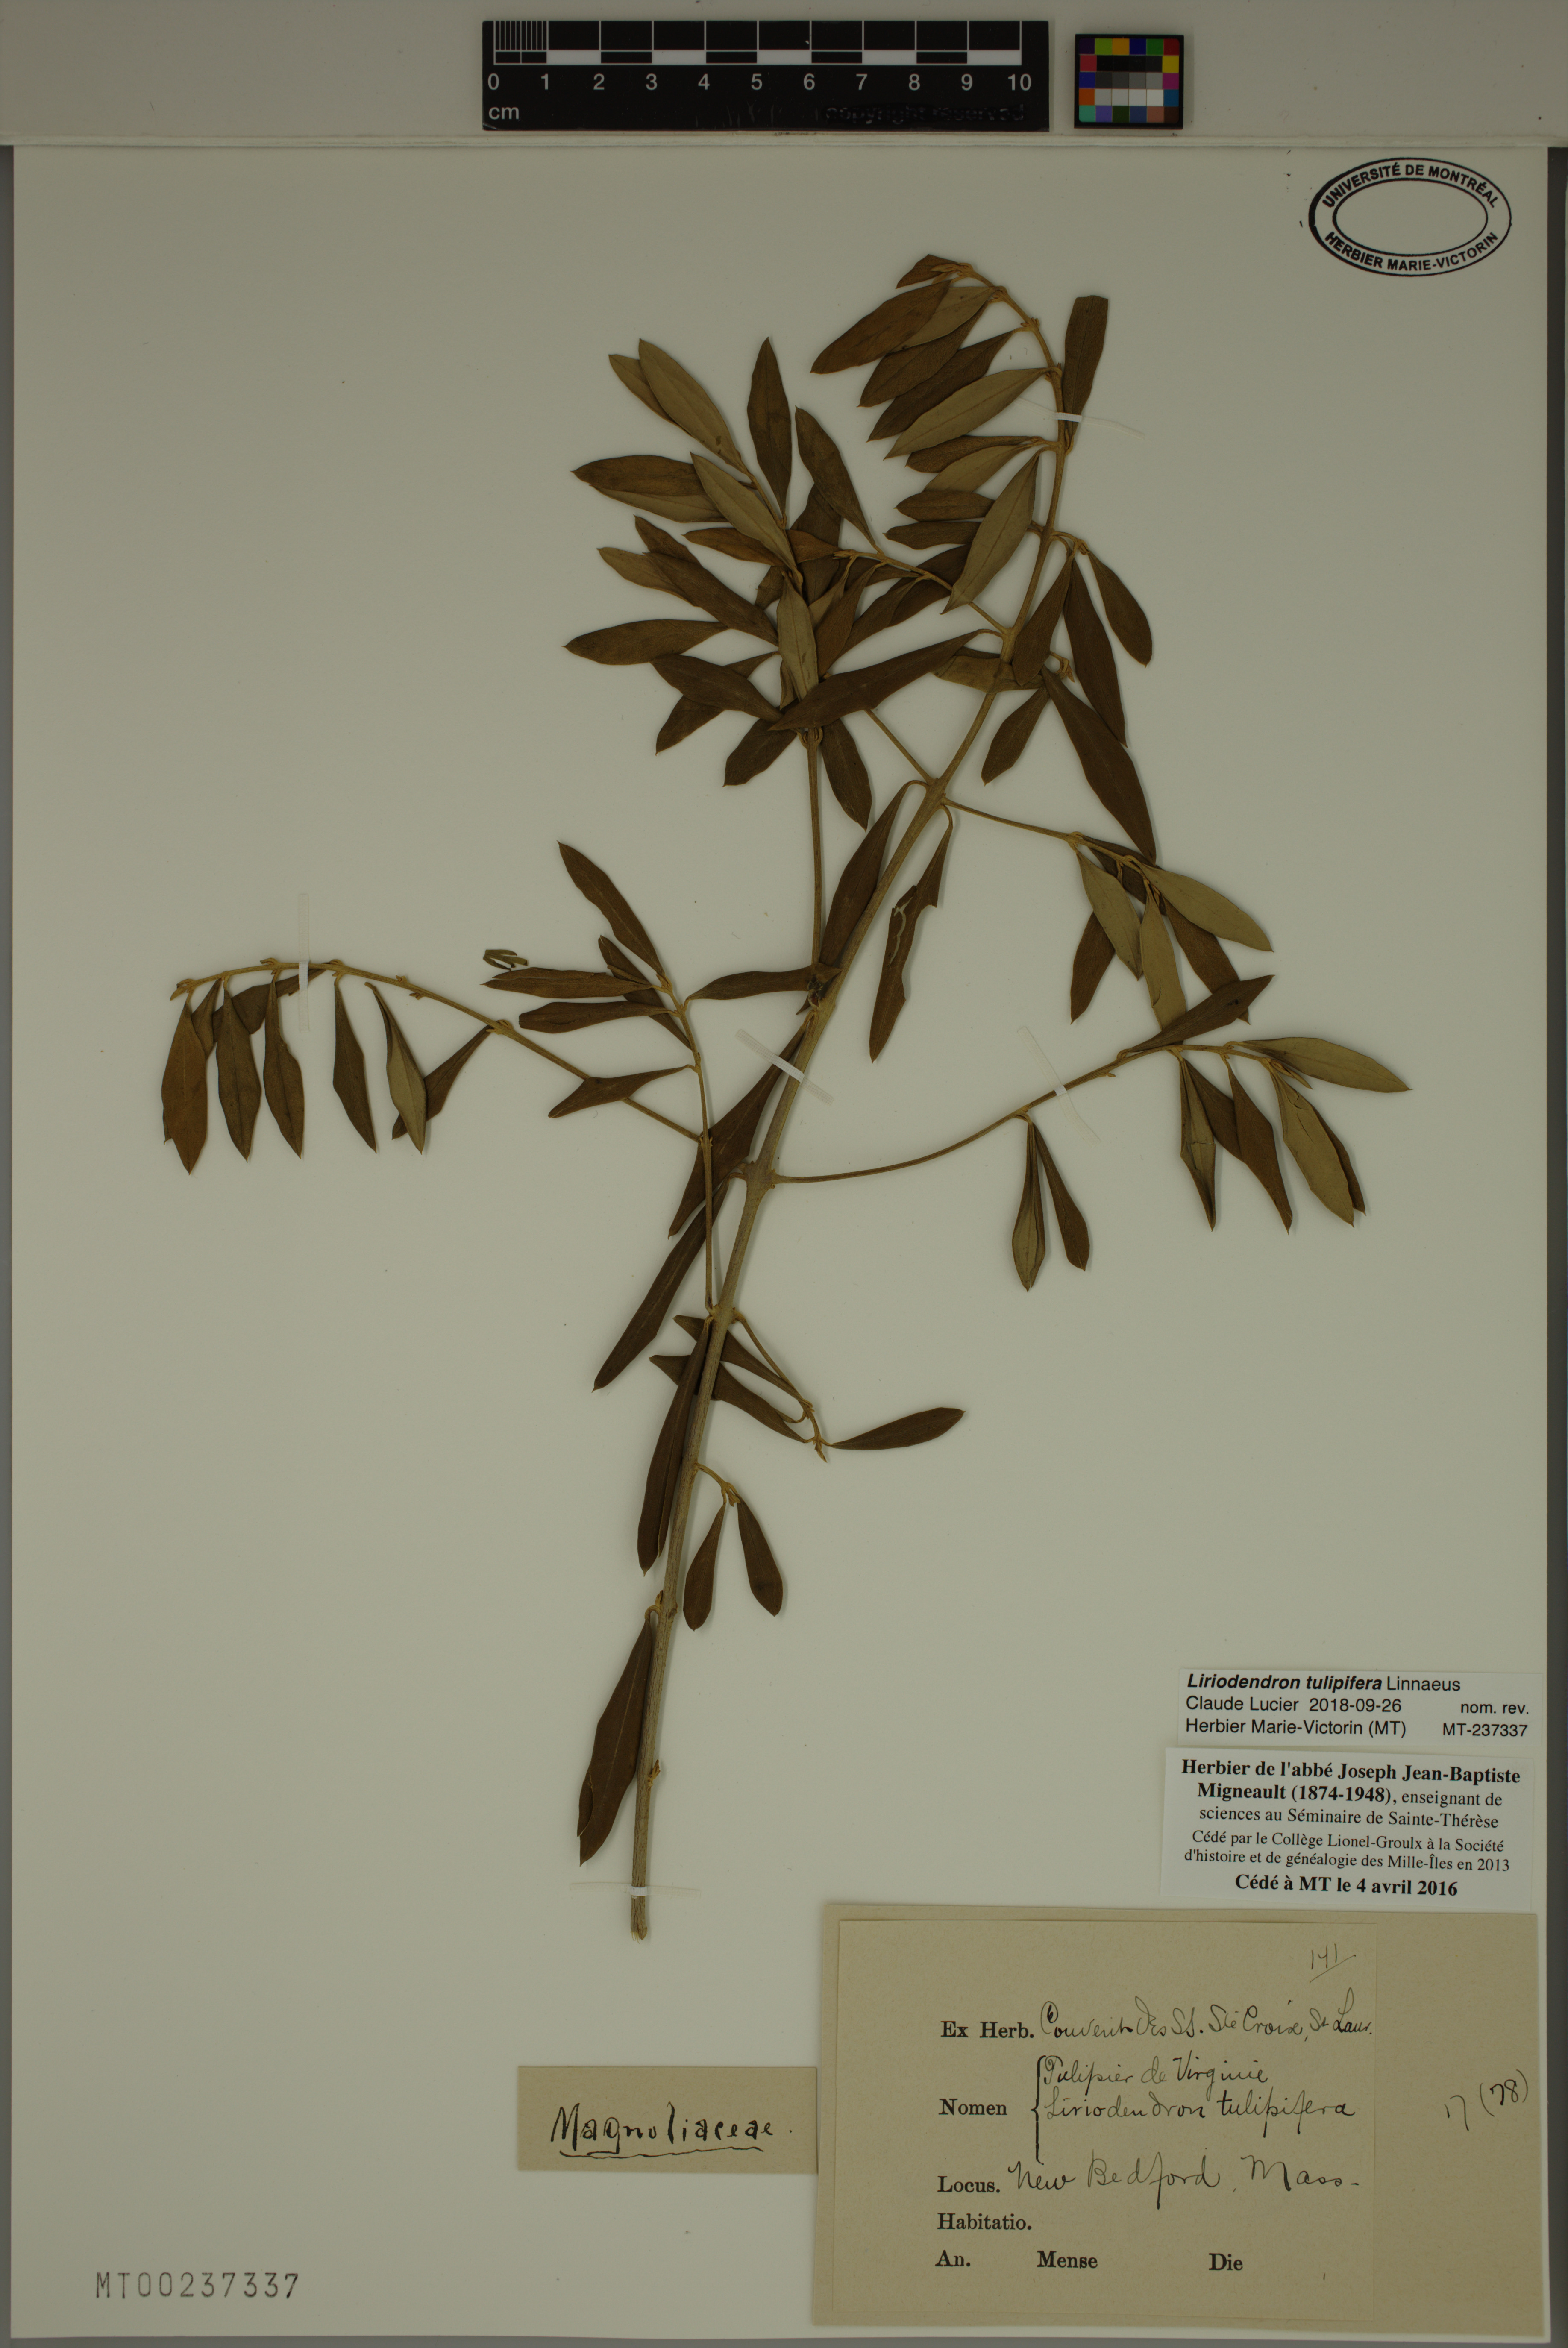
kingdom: Plantae
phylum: Tracheophyta
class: Magnoliopsida
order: Magnoliales
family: Magnoliaceae
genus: Liriodendron
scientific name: Liriodendron tulipifera
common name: Tulip tree
